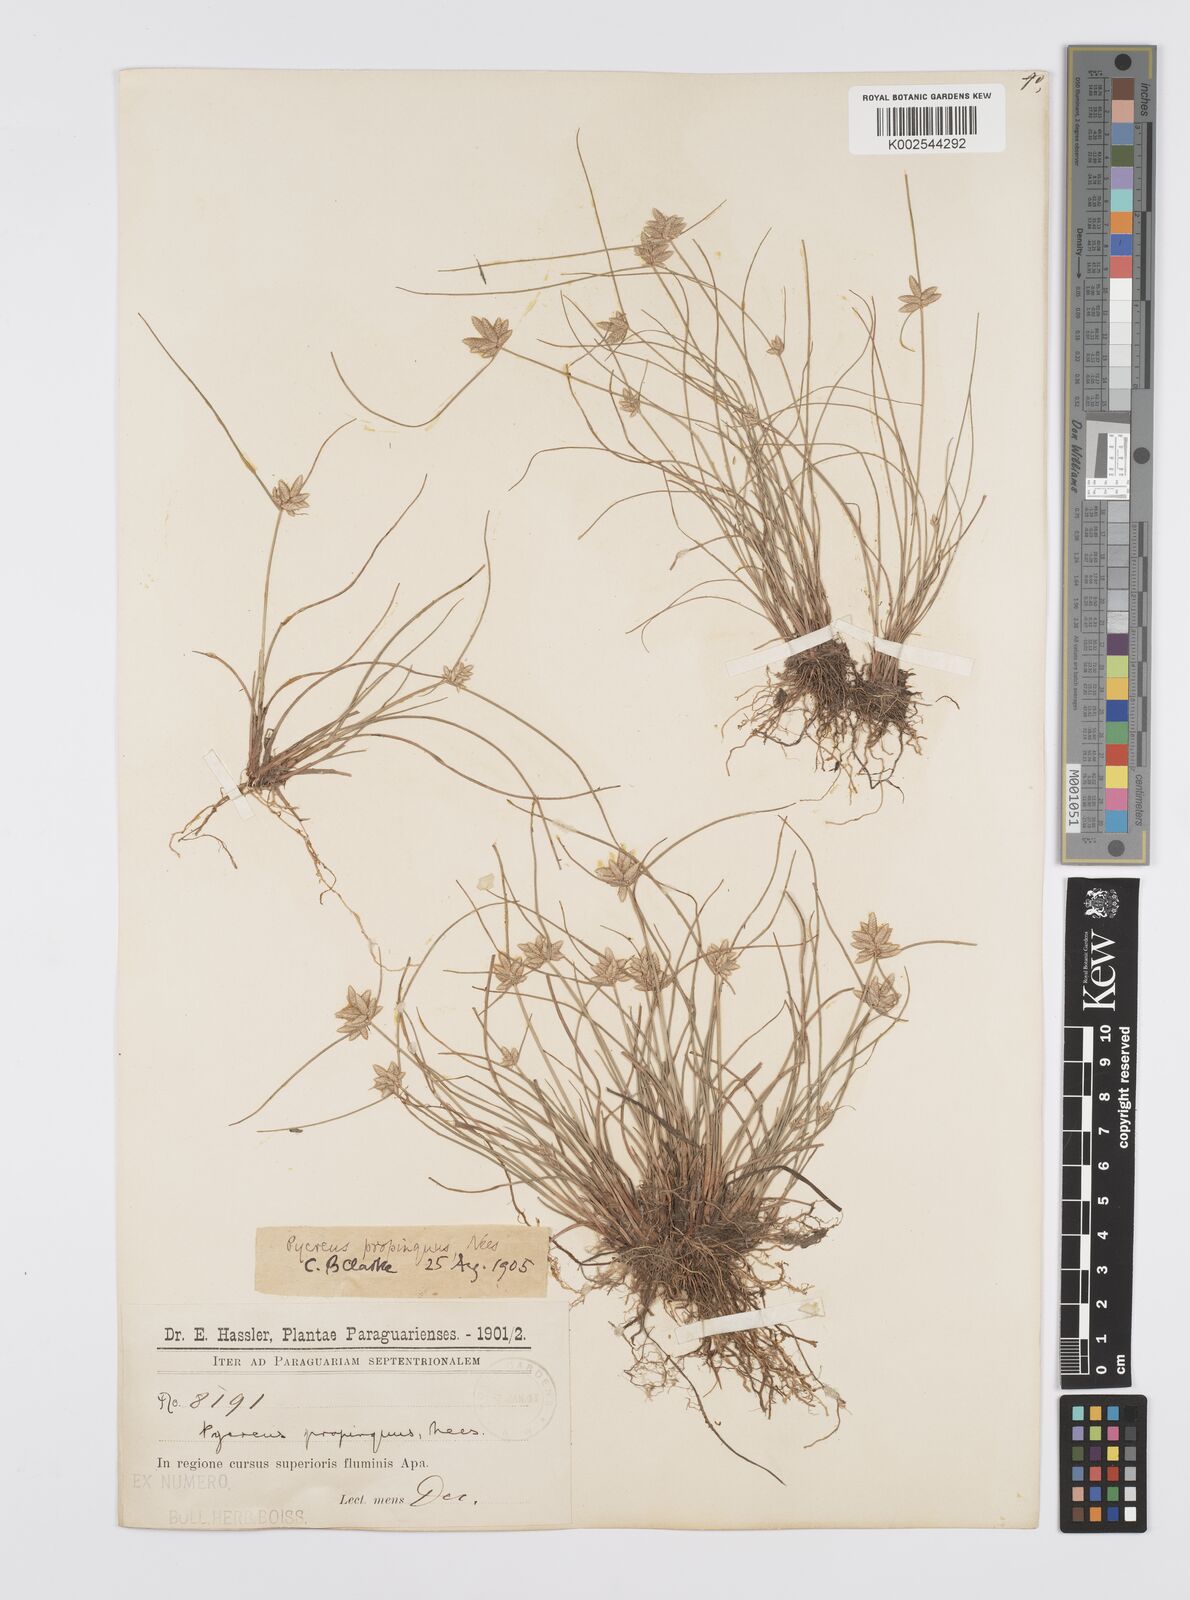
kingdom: Plantae
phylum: Tracheophyta
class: Liliopsida
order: Poales
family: Cyperaceae
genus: Cyperus
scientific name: Cyperus
